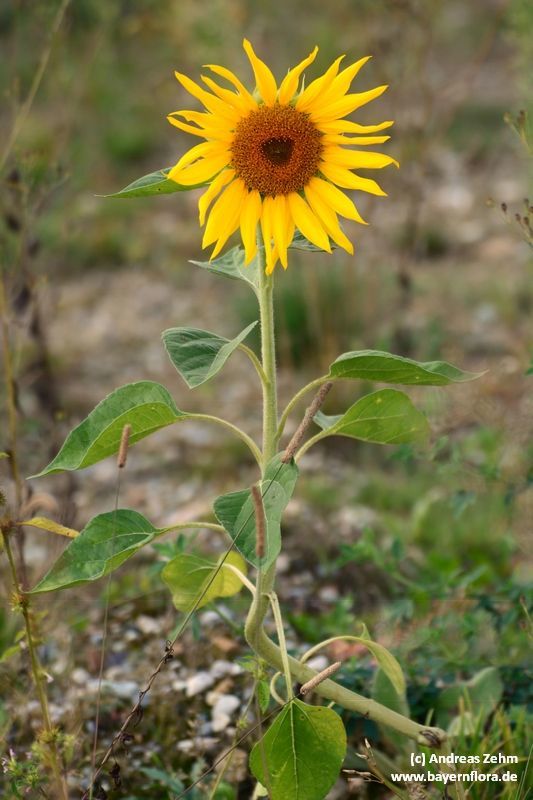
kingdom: Plantae
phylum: Tracheophyta
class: Magnoliopsida
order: Asterales
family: Asteraceae
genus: Helianthus
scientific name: Helianthus annuus
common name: Sunflower
